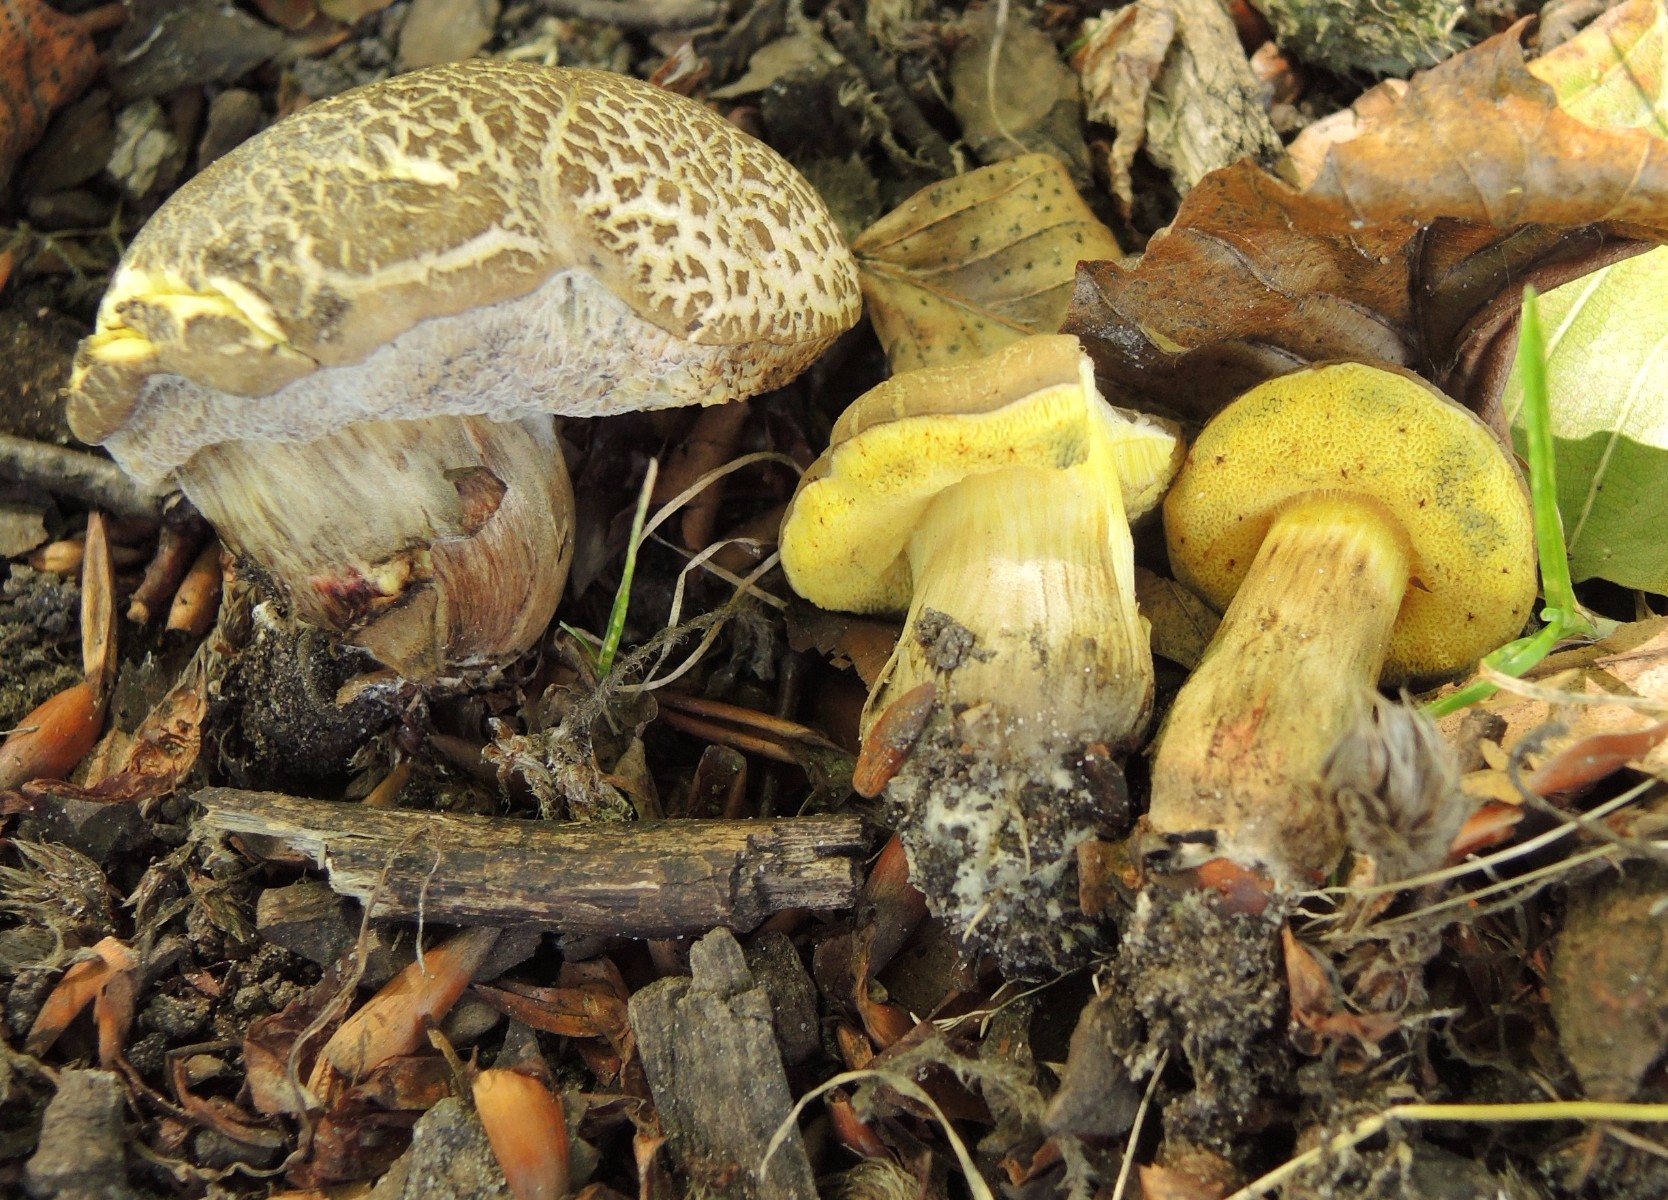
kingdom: Fungi
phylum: Basidiomycota
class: Agaricomycetes
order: Boletales
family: Boletaceae
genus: Xerocomellus
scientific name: Xerocomellus porosporus
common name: hvidsprukken rørhat
